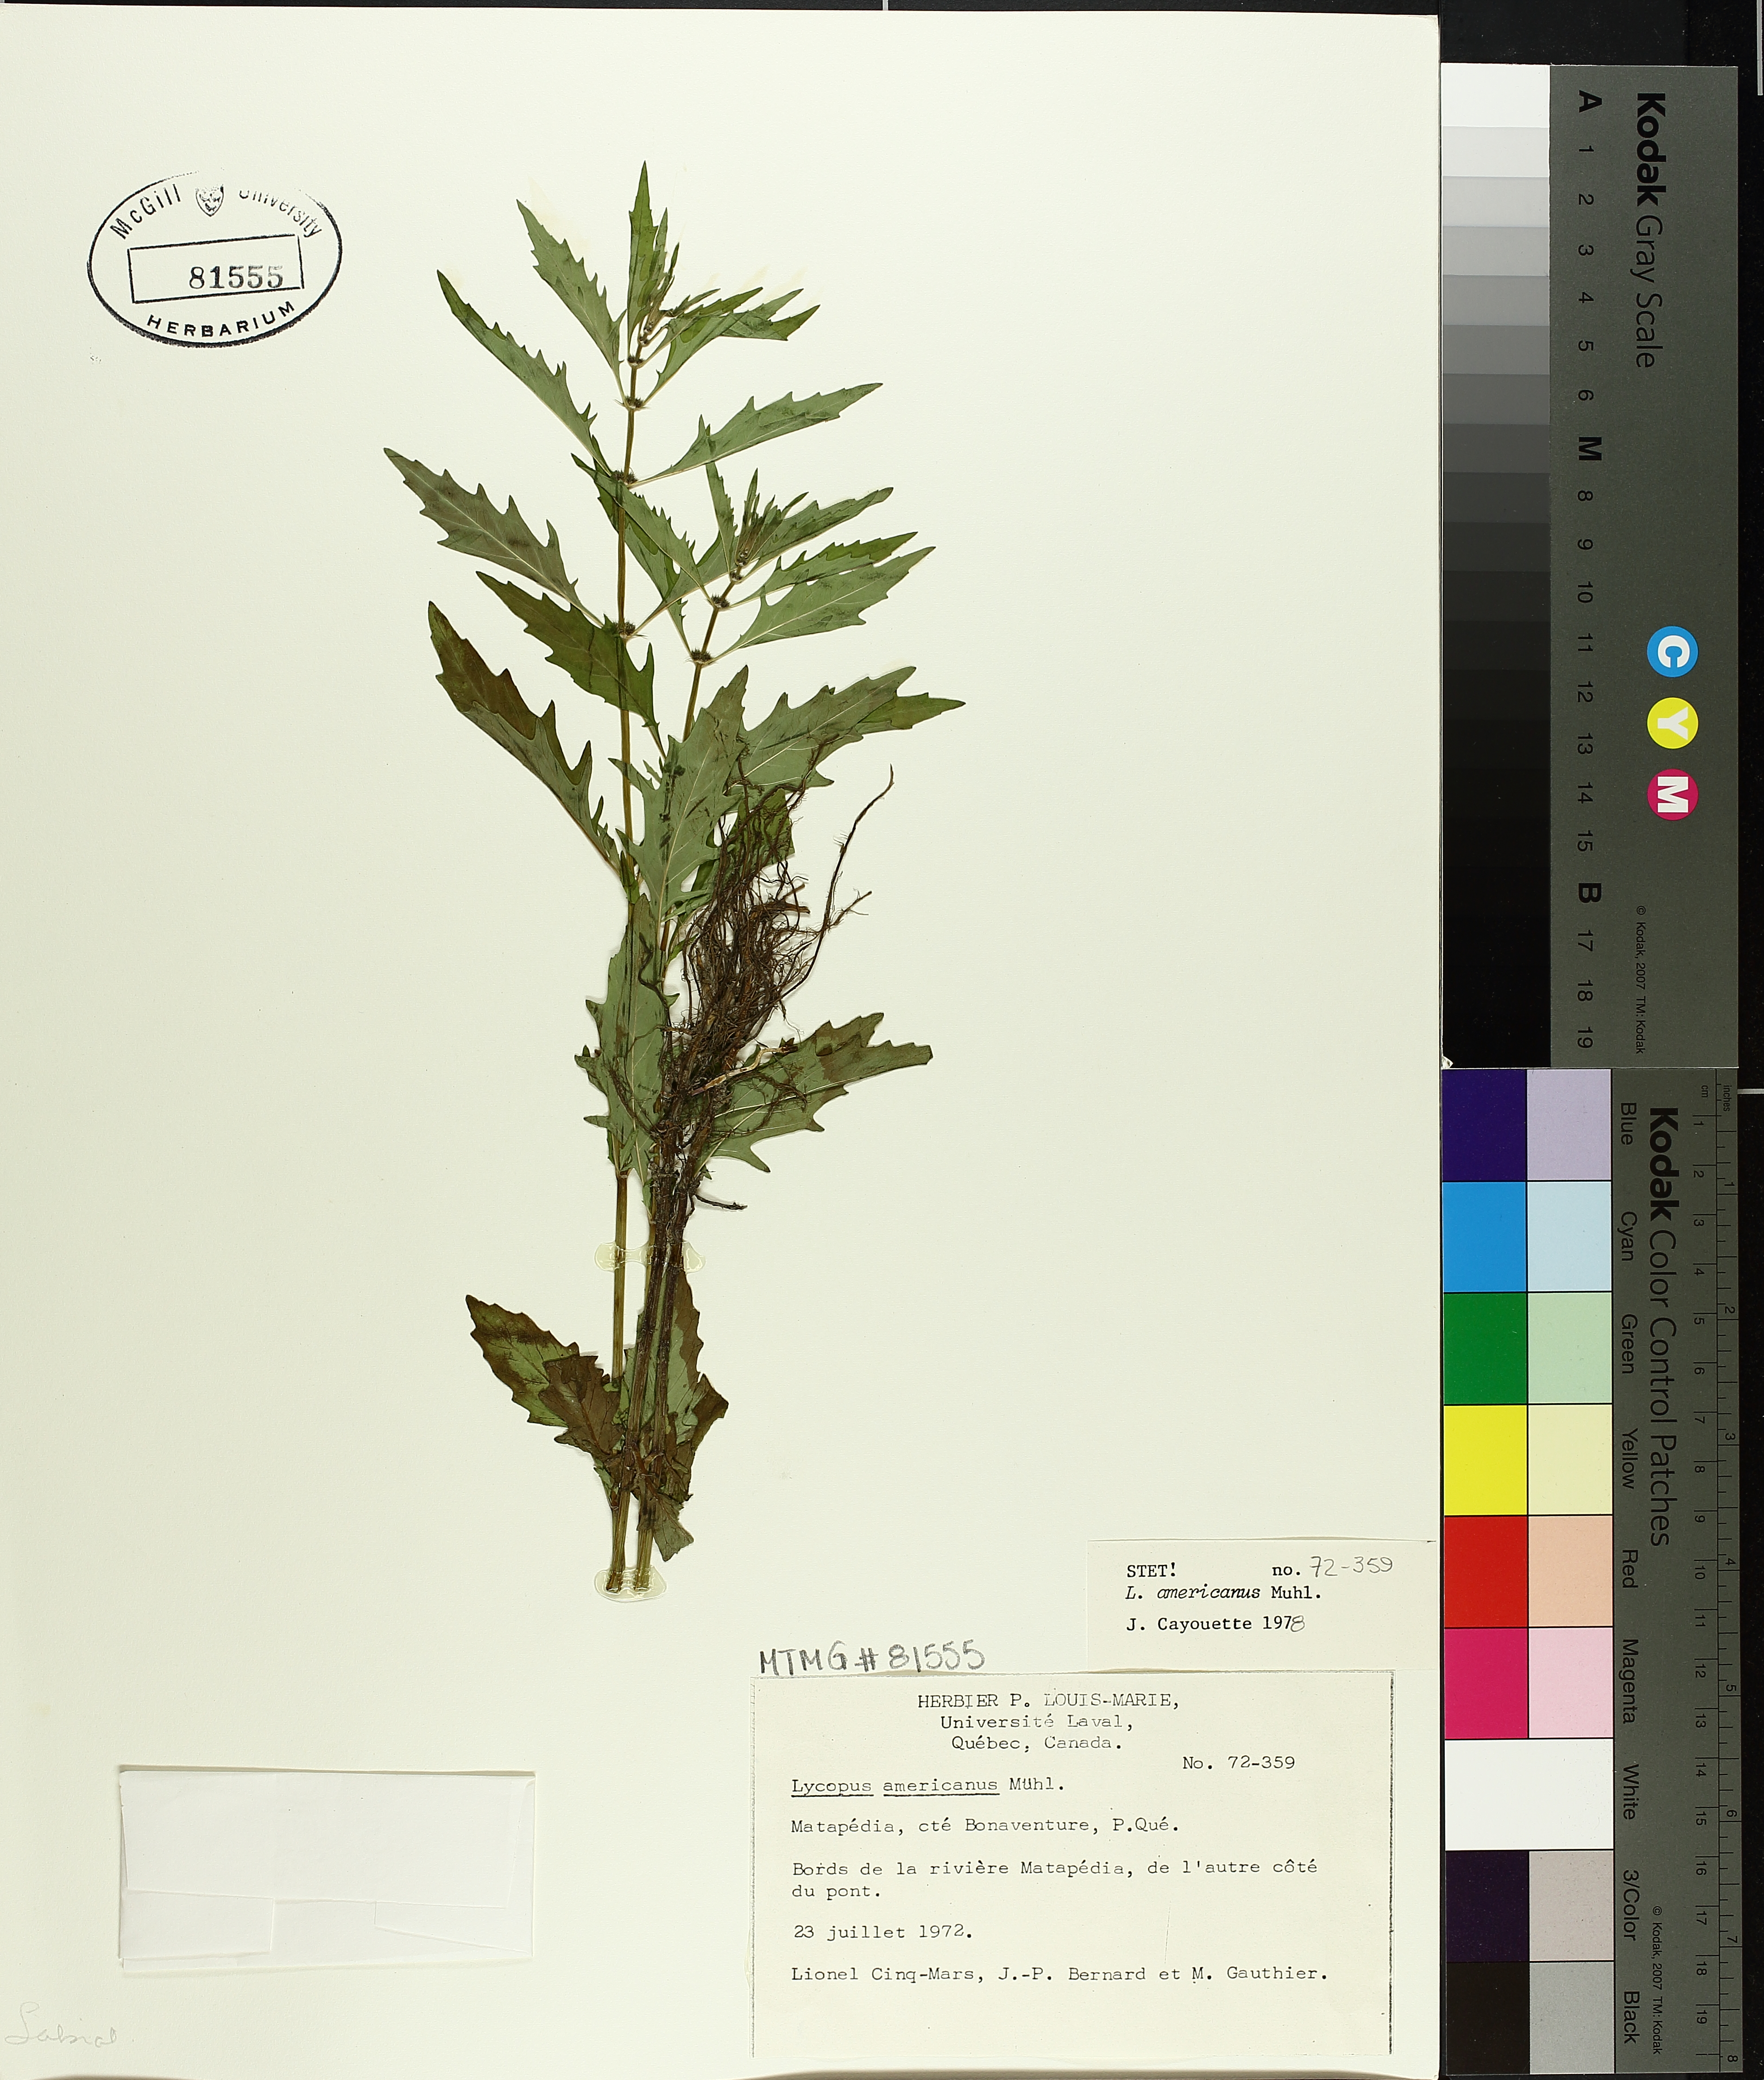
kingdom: Plantae
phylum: Tracheophyta
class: Magnoliopsida
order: Lamiales
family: Lamiaceae
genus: Lycopus
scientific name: Lycopus americanus
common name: American bugleweed
